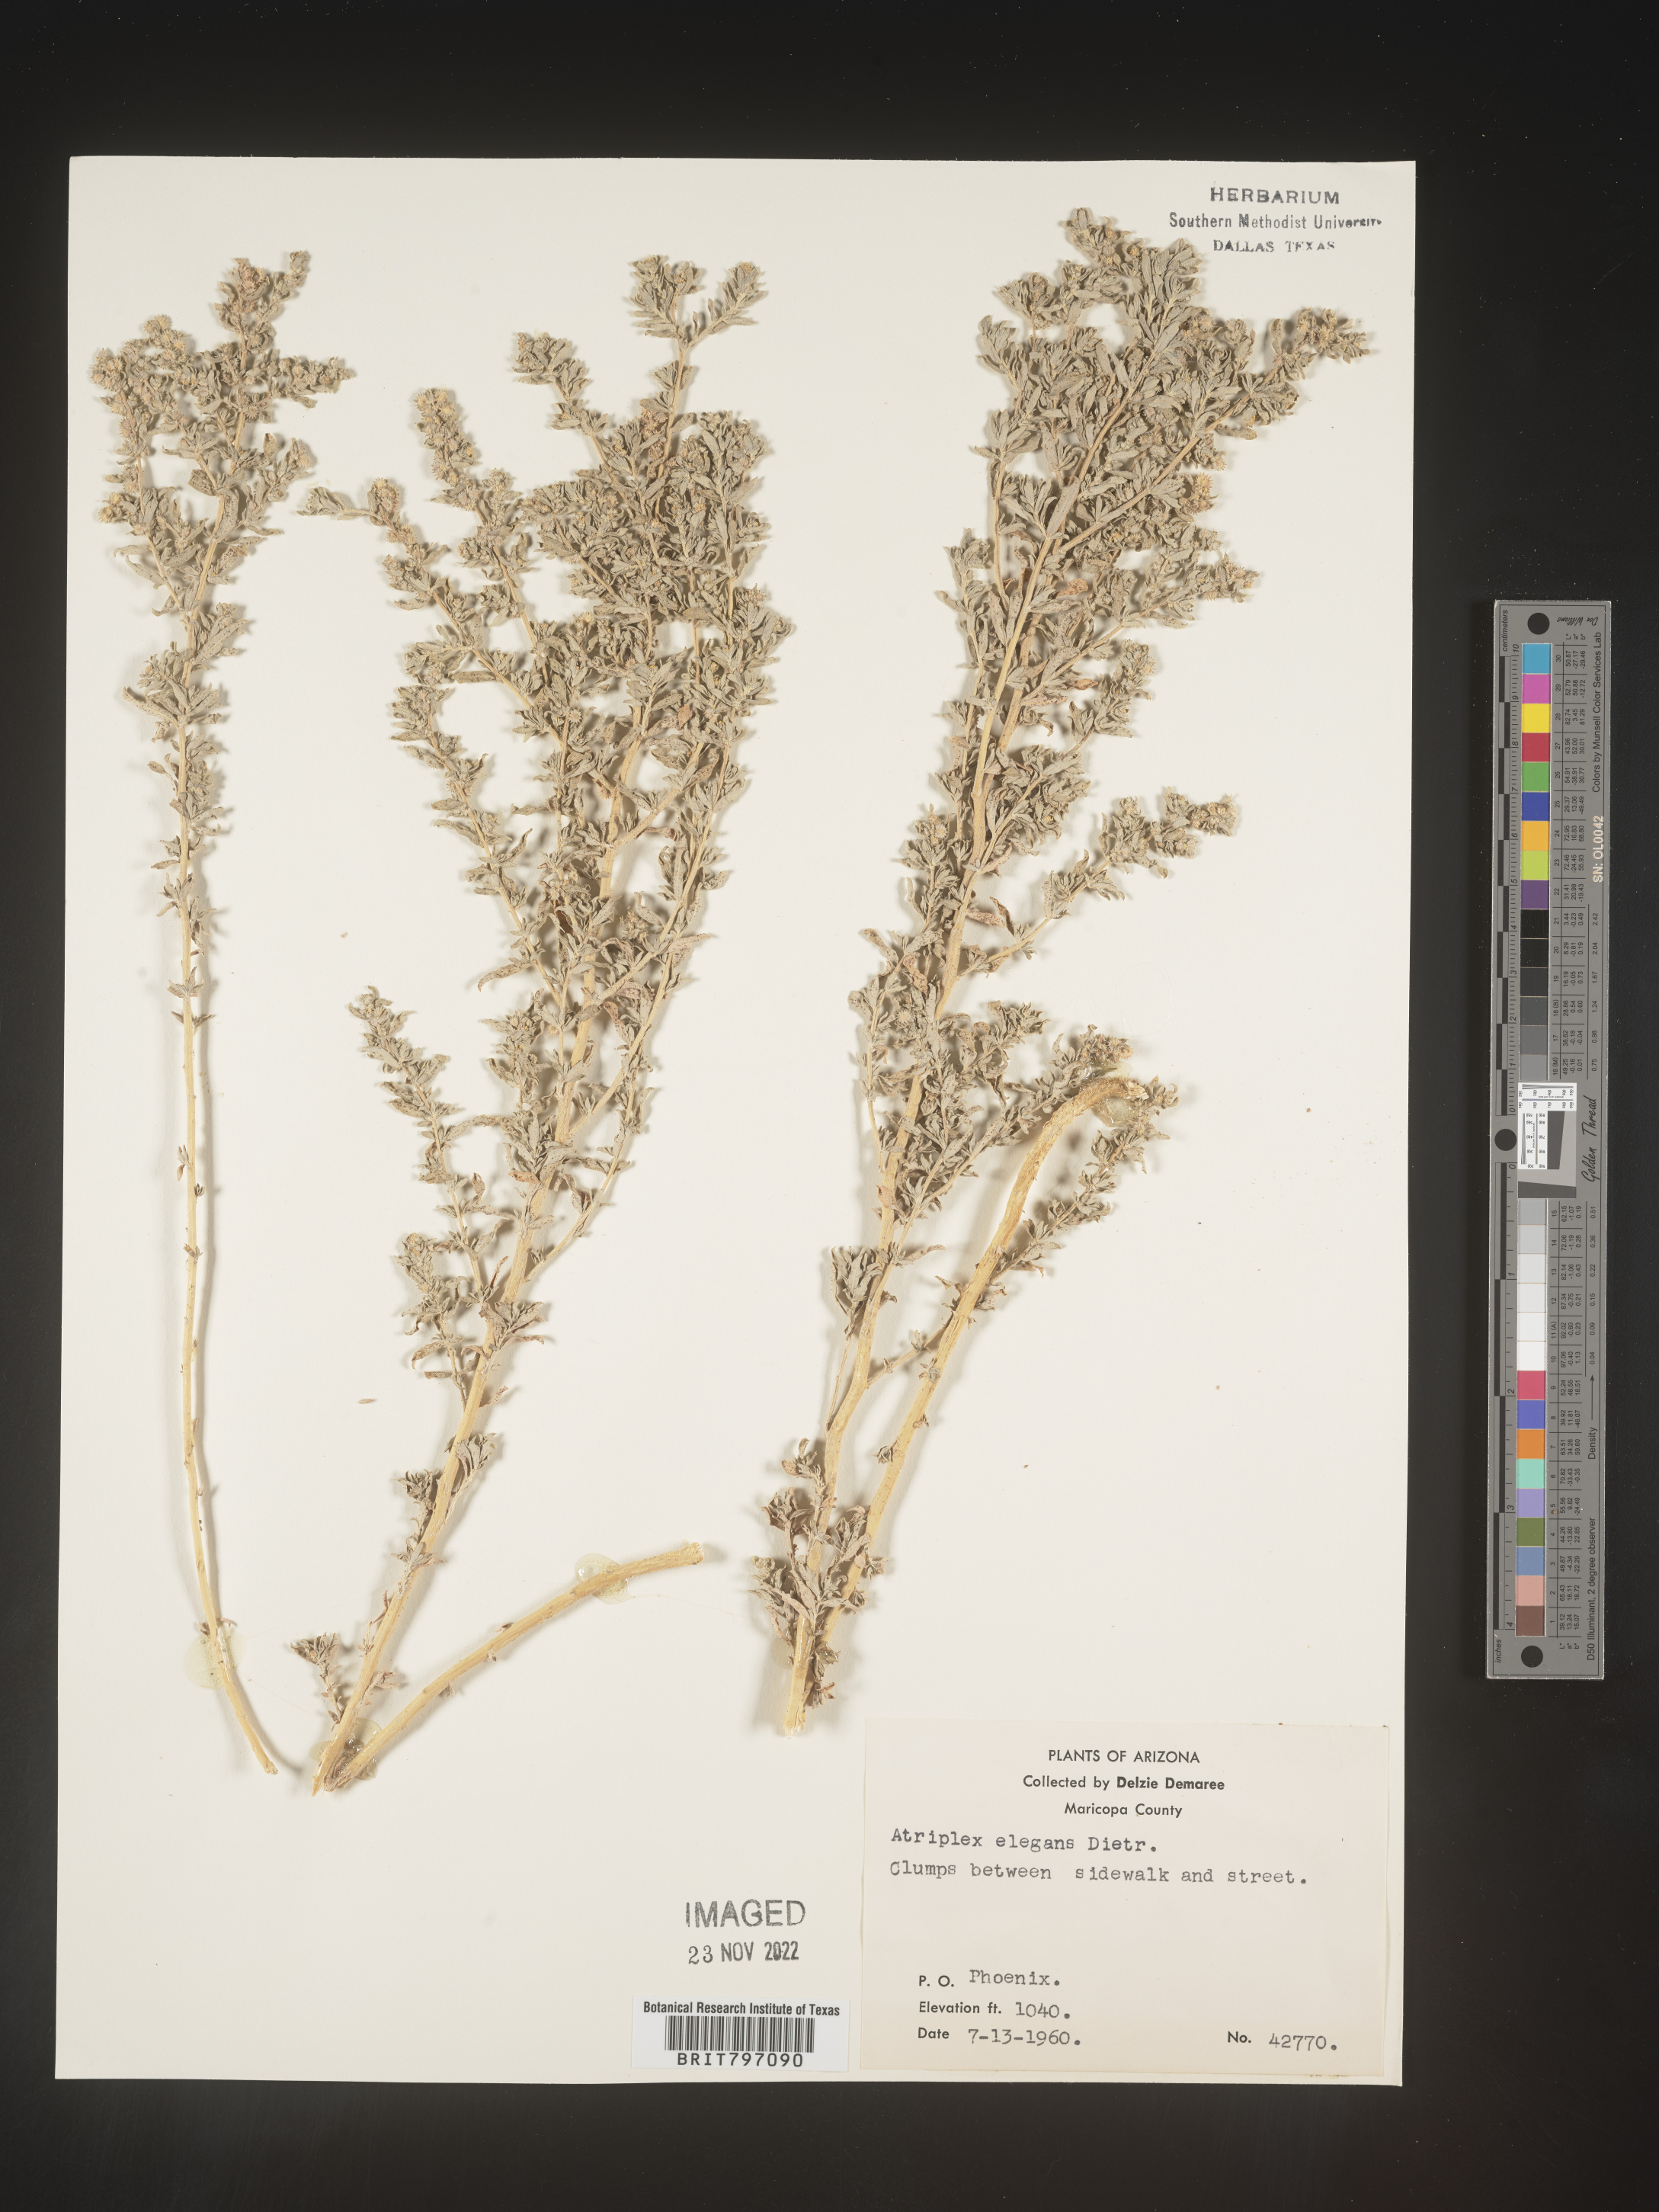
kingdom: Plantae
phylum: Tracheophyta
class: Magnoliopsida
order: Caryophyllales
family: Amaranthaceae
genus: Atriplex
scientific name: Atriplex
